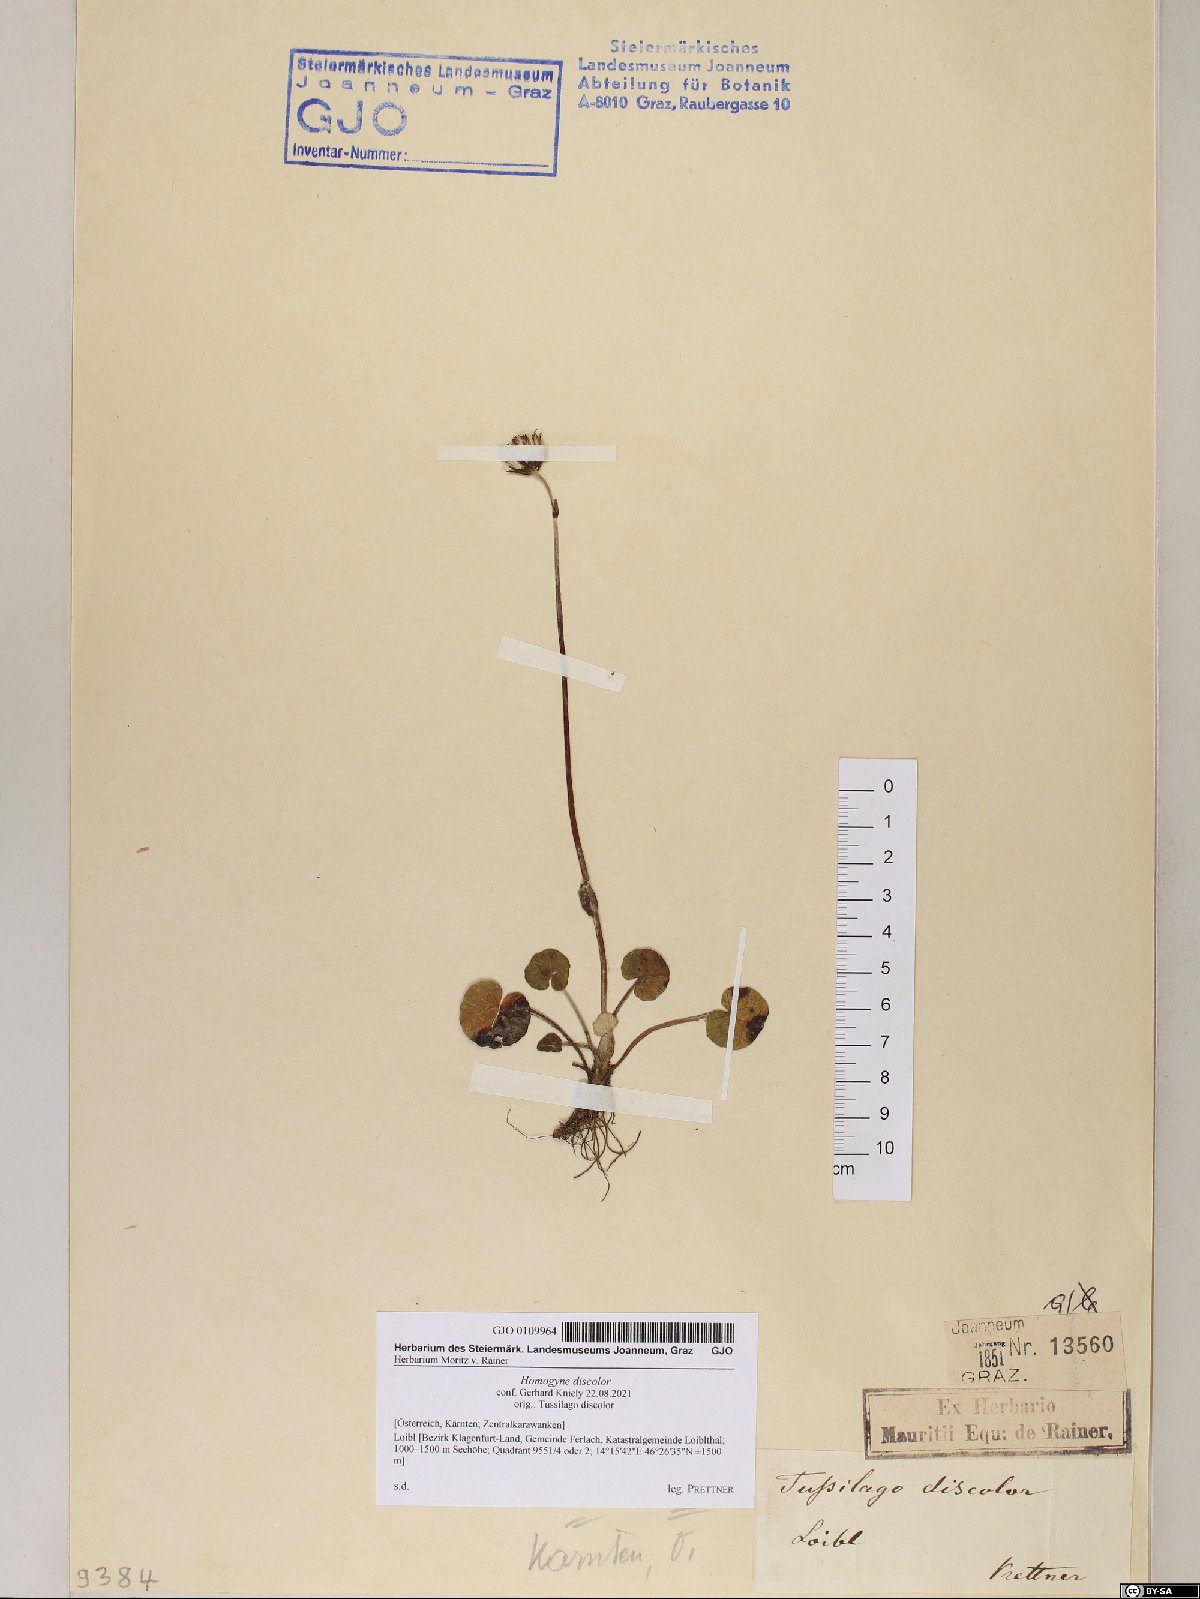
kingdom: Plantae
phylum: Tracheophyta
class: Magnoliopsida
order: Asterales
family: Asteraceae
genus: Homogyne
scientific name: Homogyne discolor
